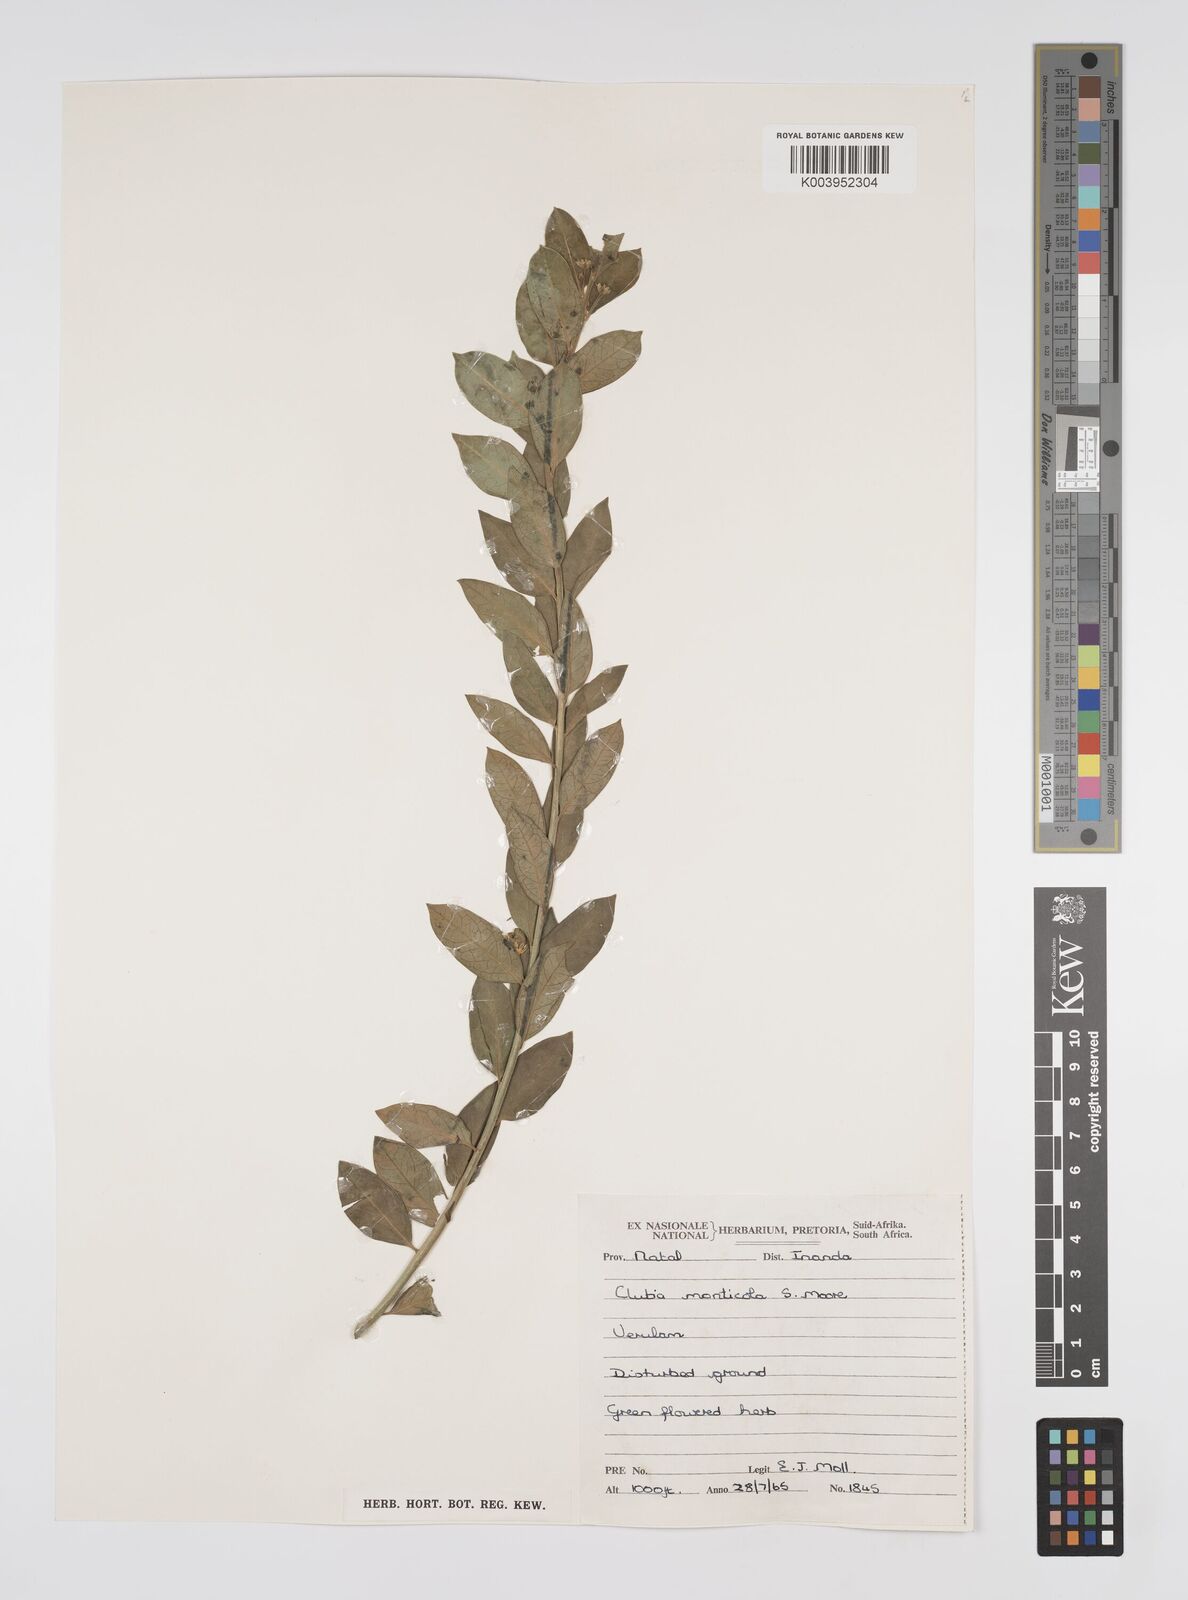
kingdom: Plantae
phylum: Tracheophyta
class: Magnoliopsida
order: Malpighiales
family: Peraceae
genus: Clutia
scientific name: Clutia
